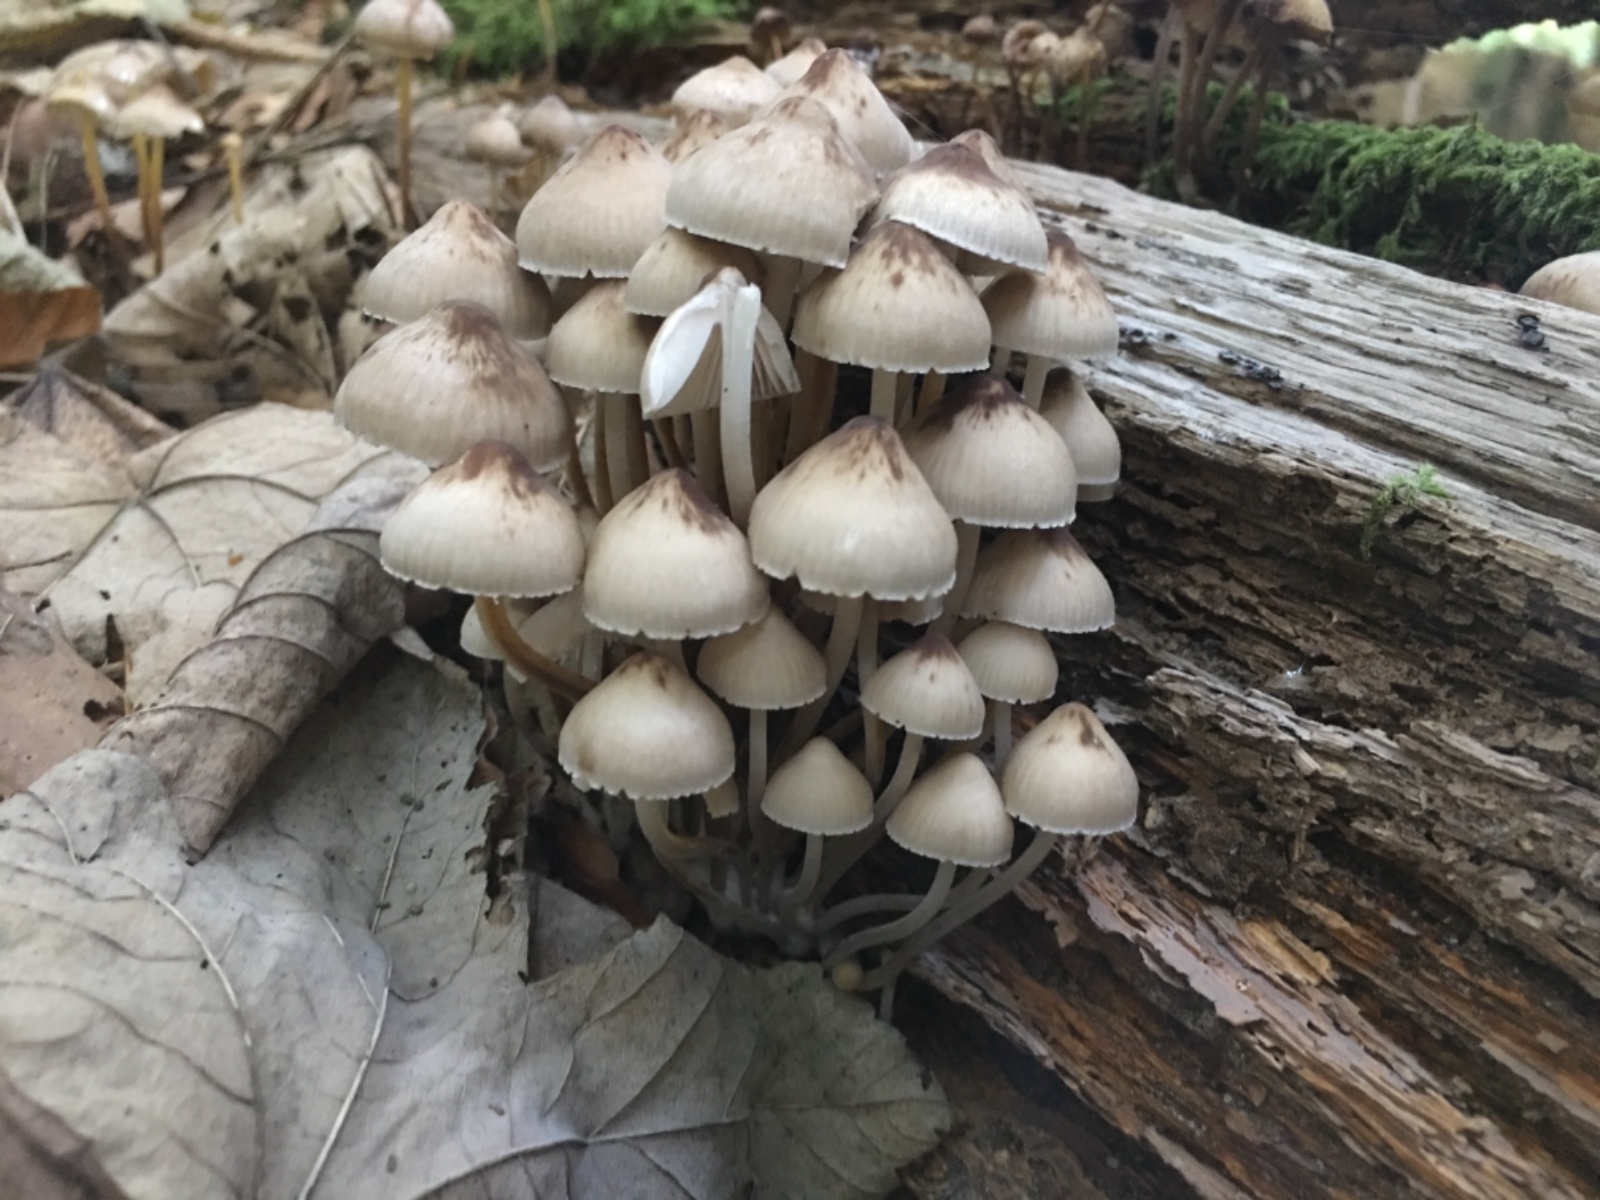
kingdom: Fungi
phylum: Basidiomycota
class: Agaricomycetes
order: Agaricales
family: Mycenaceae
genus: Mycena
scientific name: Mycena inclinata
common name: nikkende huesvamp
